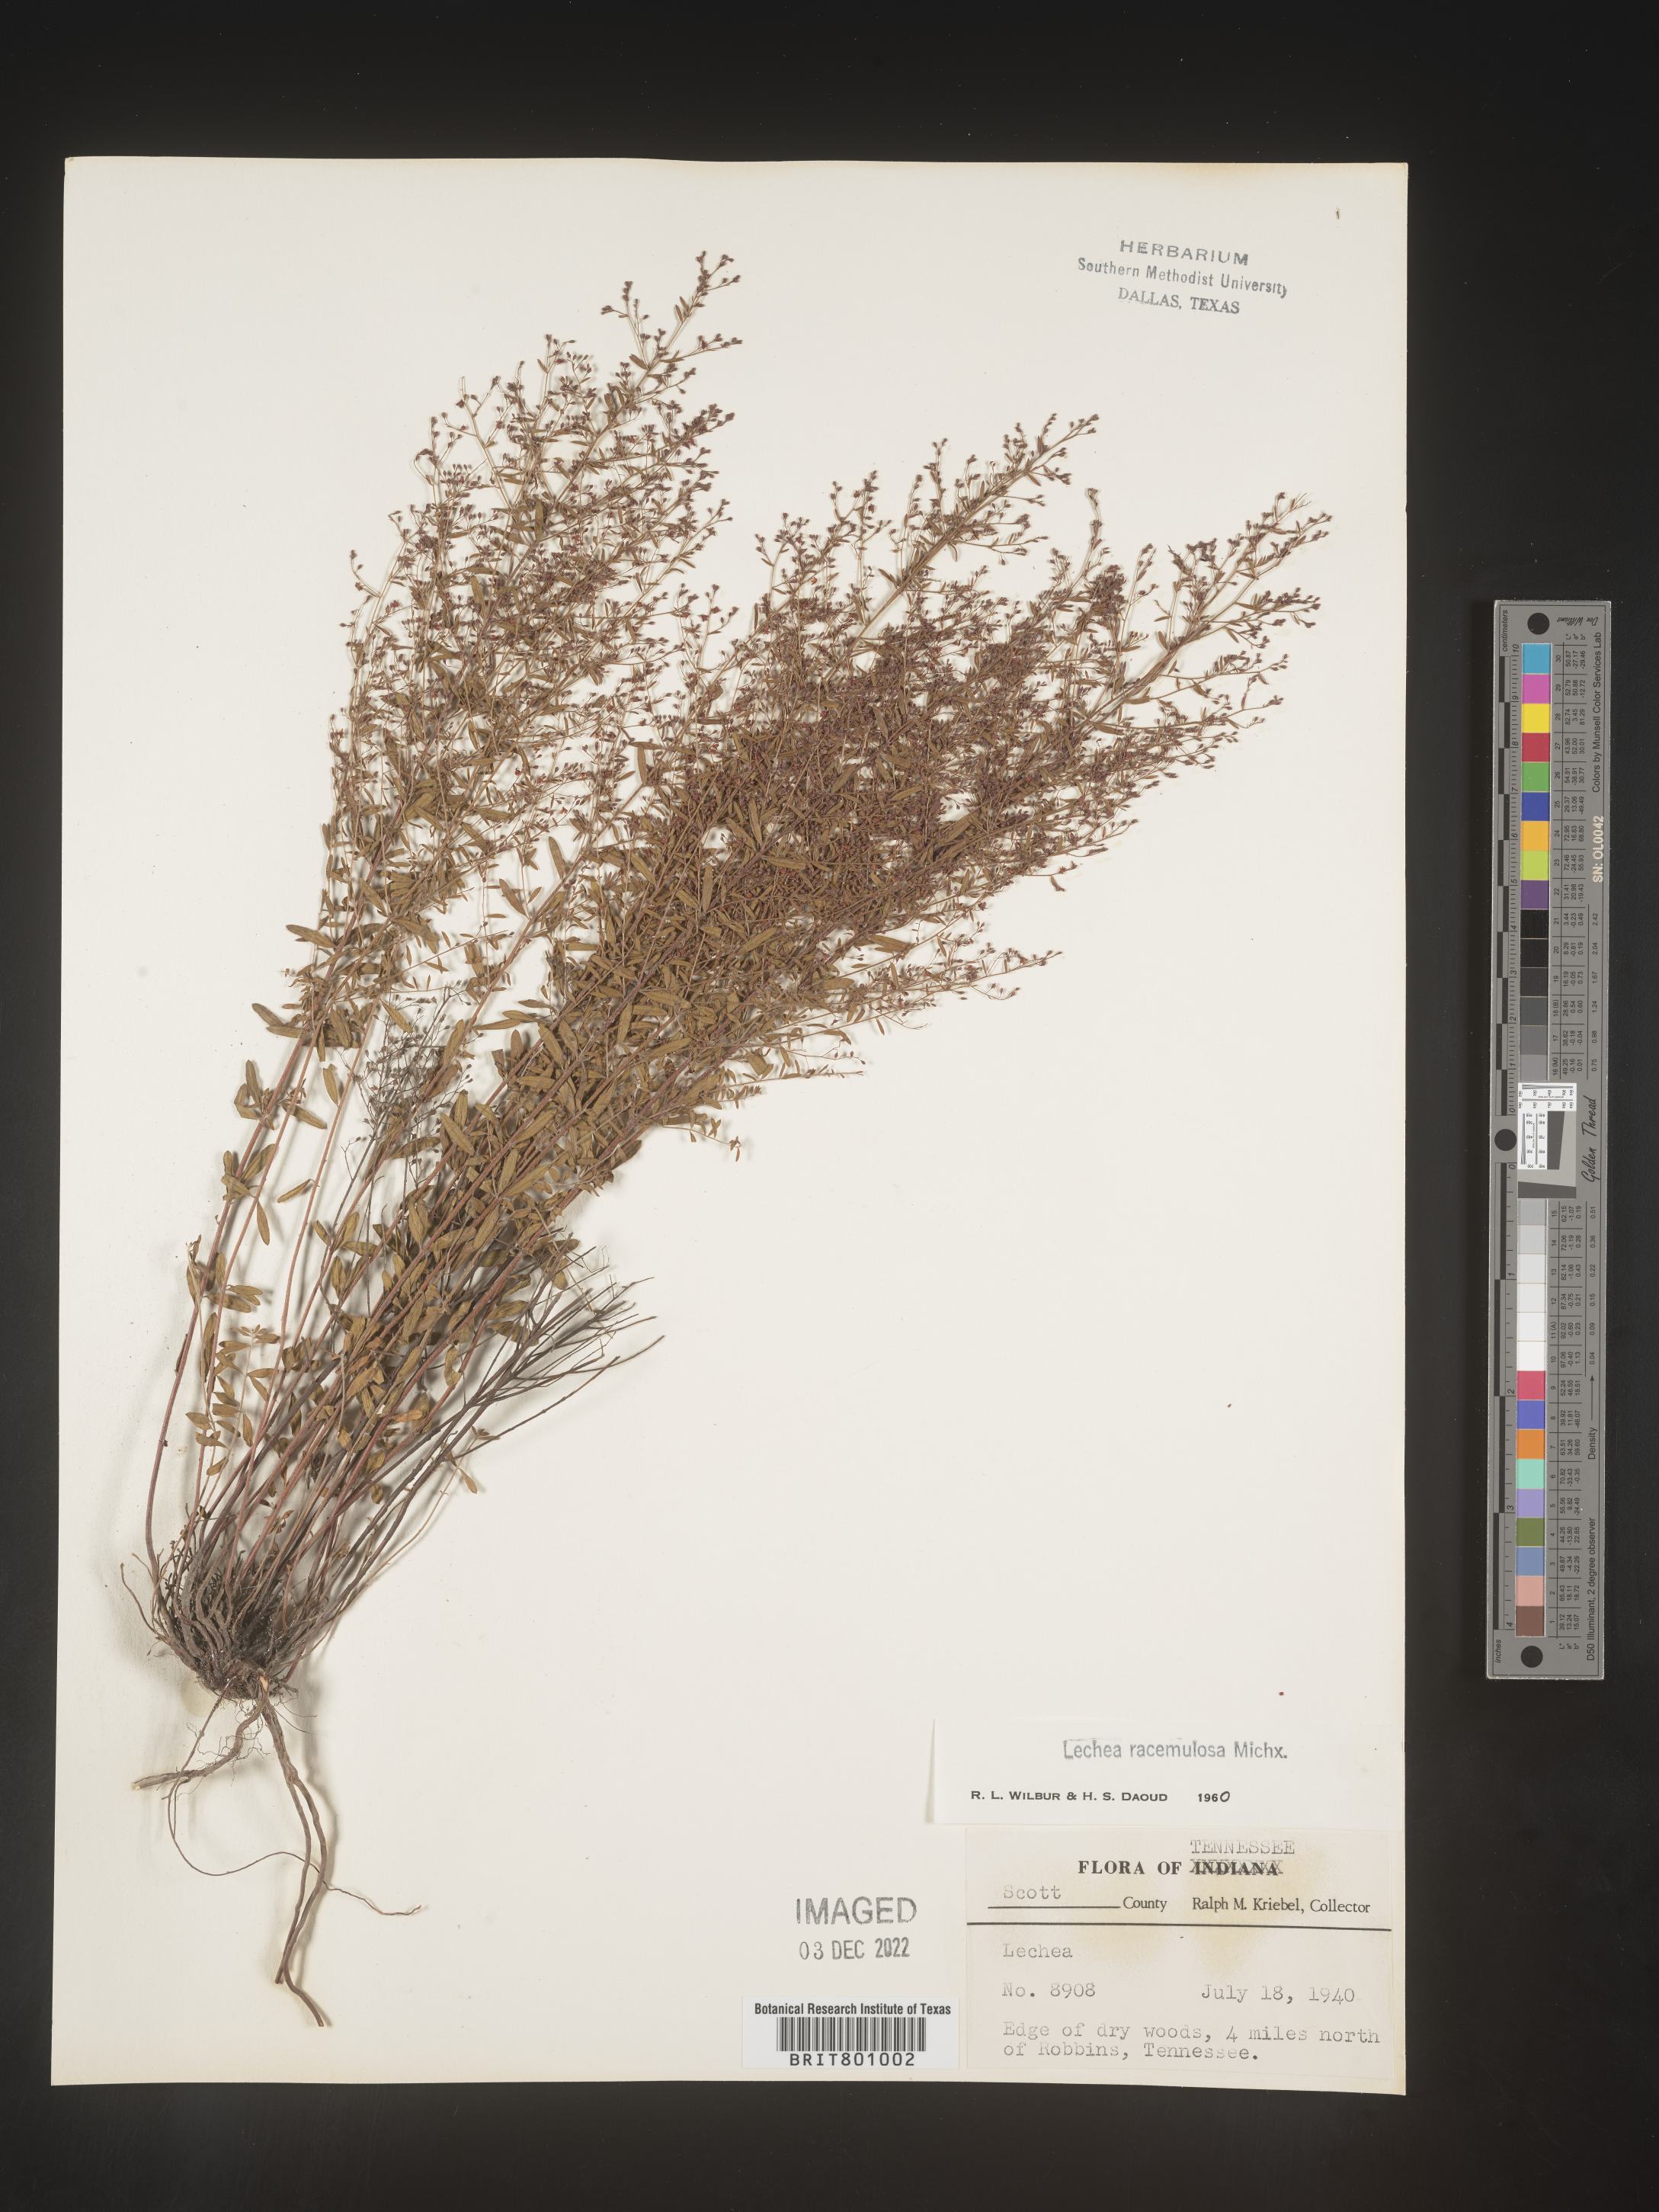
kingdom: Plantae
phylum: Tracheophyta
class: Magnoliopsida
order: Malvales
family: Cistaceae
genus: Lechea
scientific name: Lechea racemulosa
